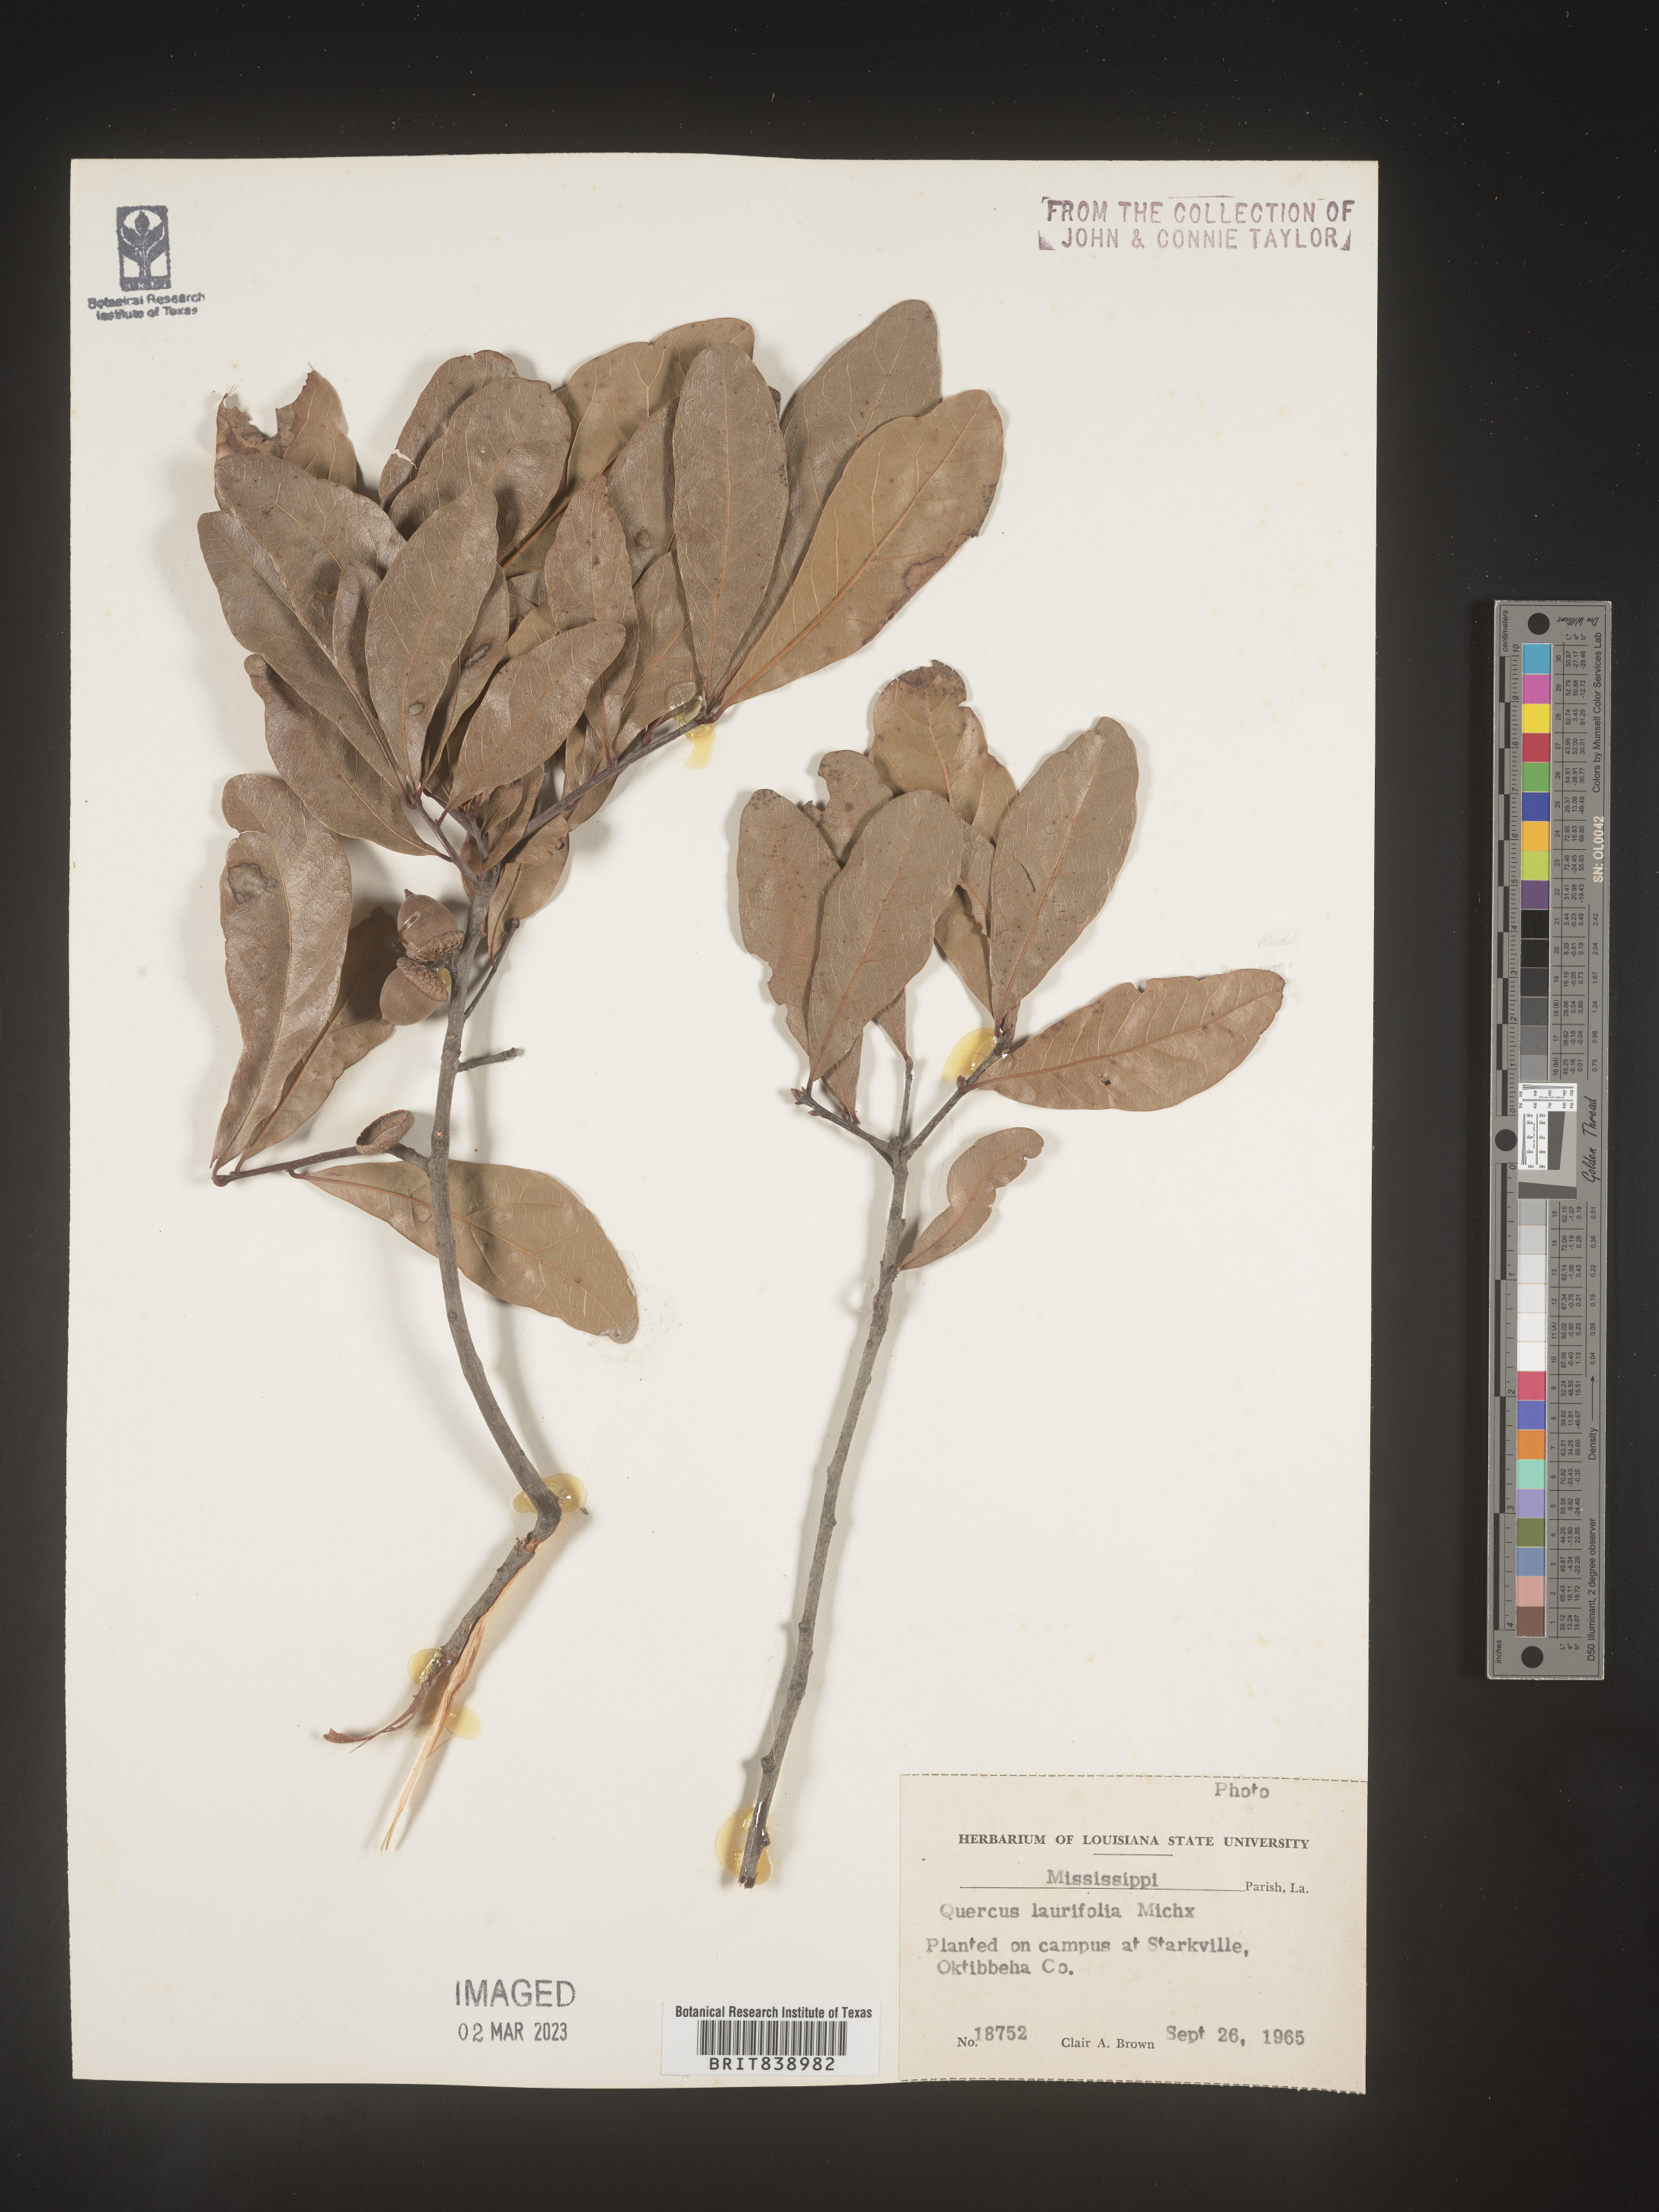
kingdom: Plantae
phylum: Tracheophyta
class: Magnoliopsida
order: Fagales
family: Fagaceae
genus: Quercus
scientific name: Quercus laurifolia
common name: Swamp laurel oak
